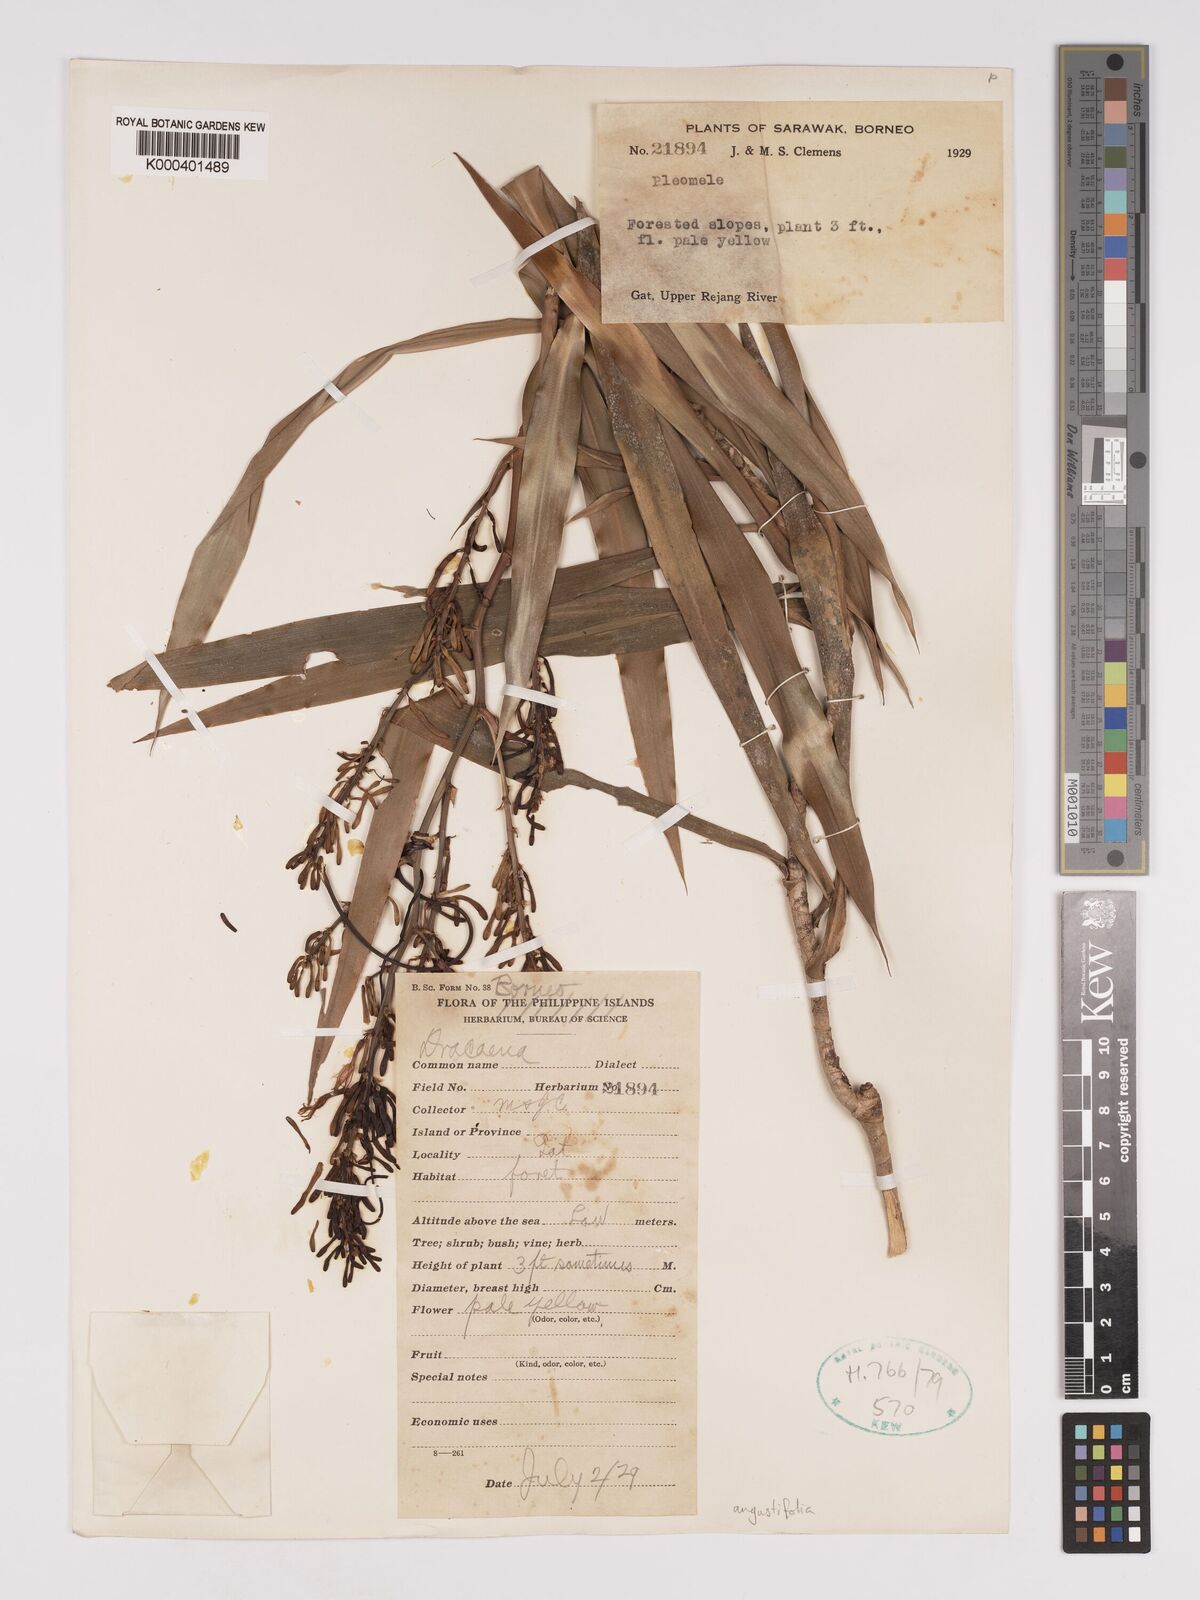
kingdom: Plantae
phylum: Tracheophyta
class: Liliopsida
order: Asparagales
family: Asparagaceae
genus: Dracaena
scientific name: Dracaena angustifolia
